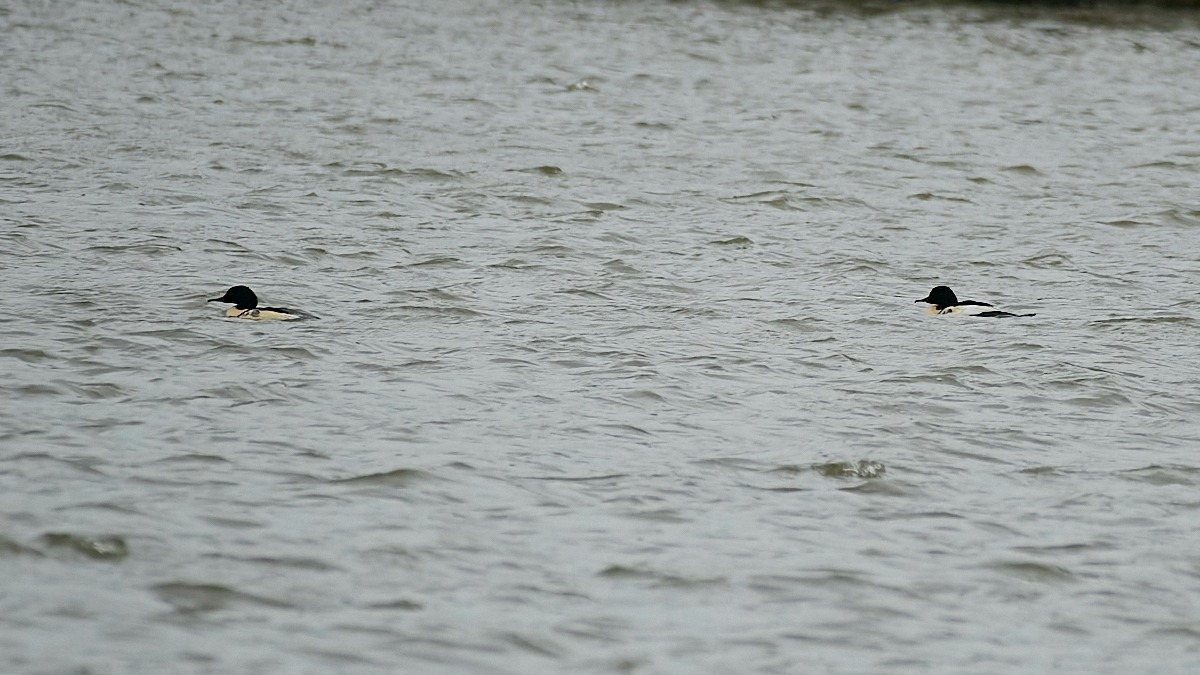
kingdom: Animalia
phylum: Chordata
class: Aves
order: Anseriformes
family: Anatidae
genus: Mergus
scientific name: Mergus merganser
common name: Stor skallesluger
